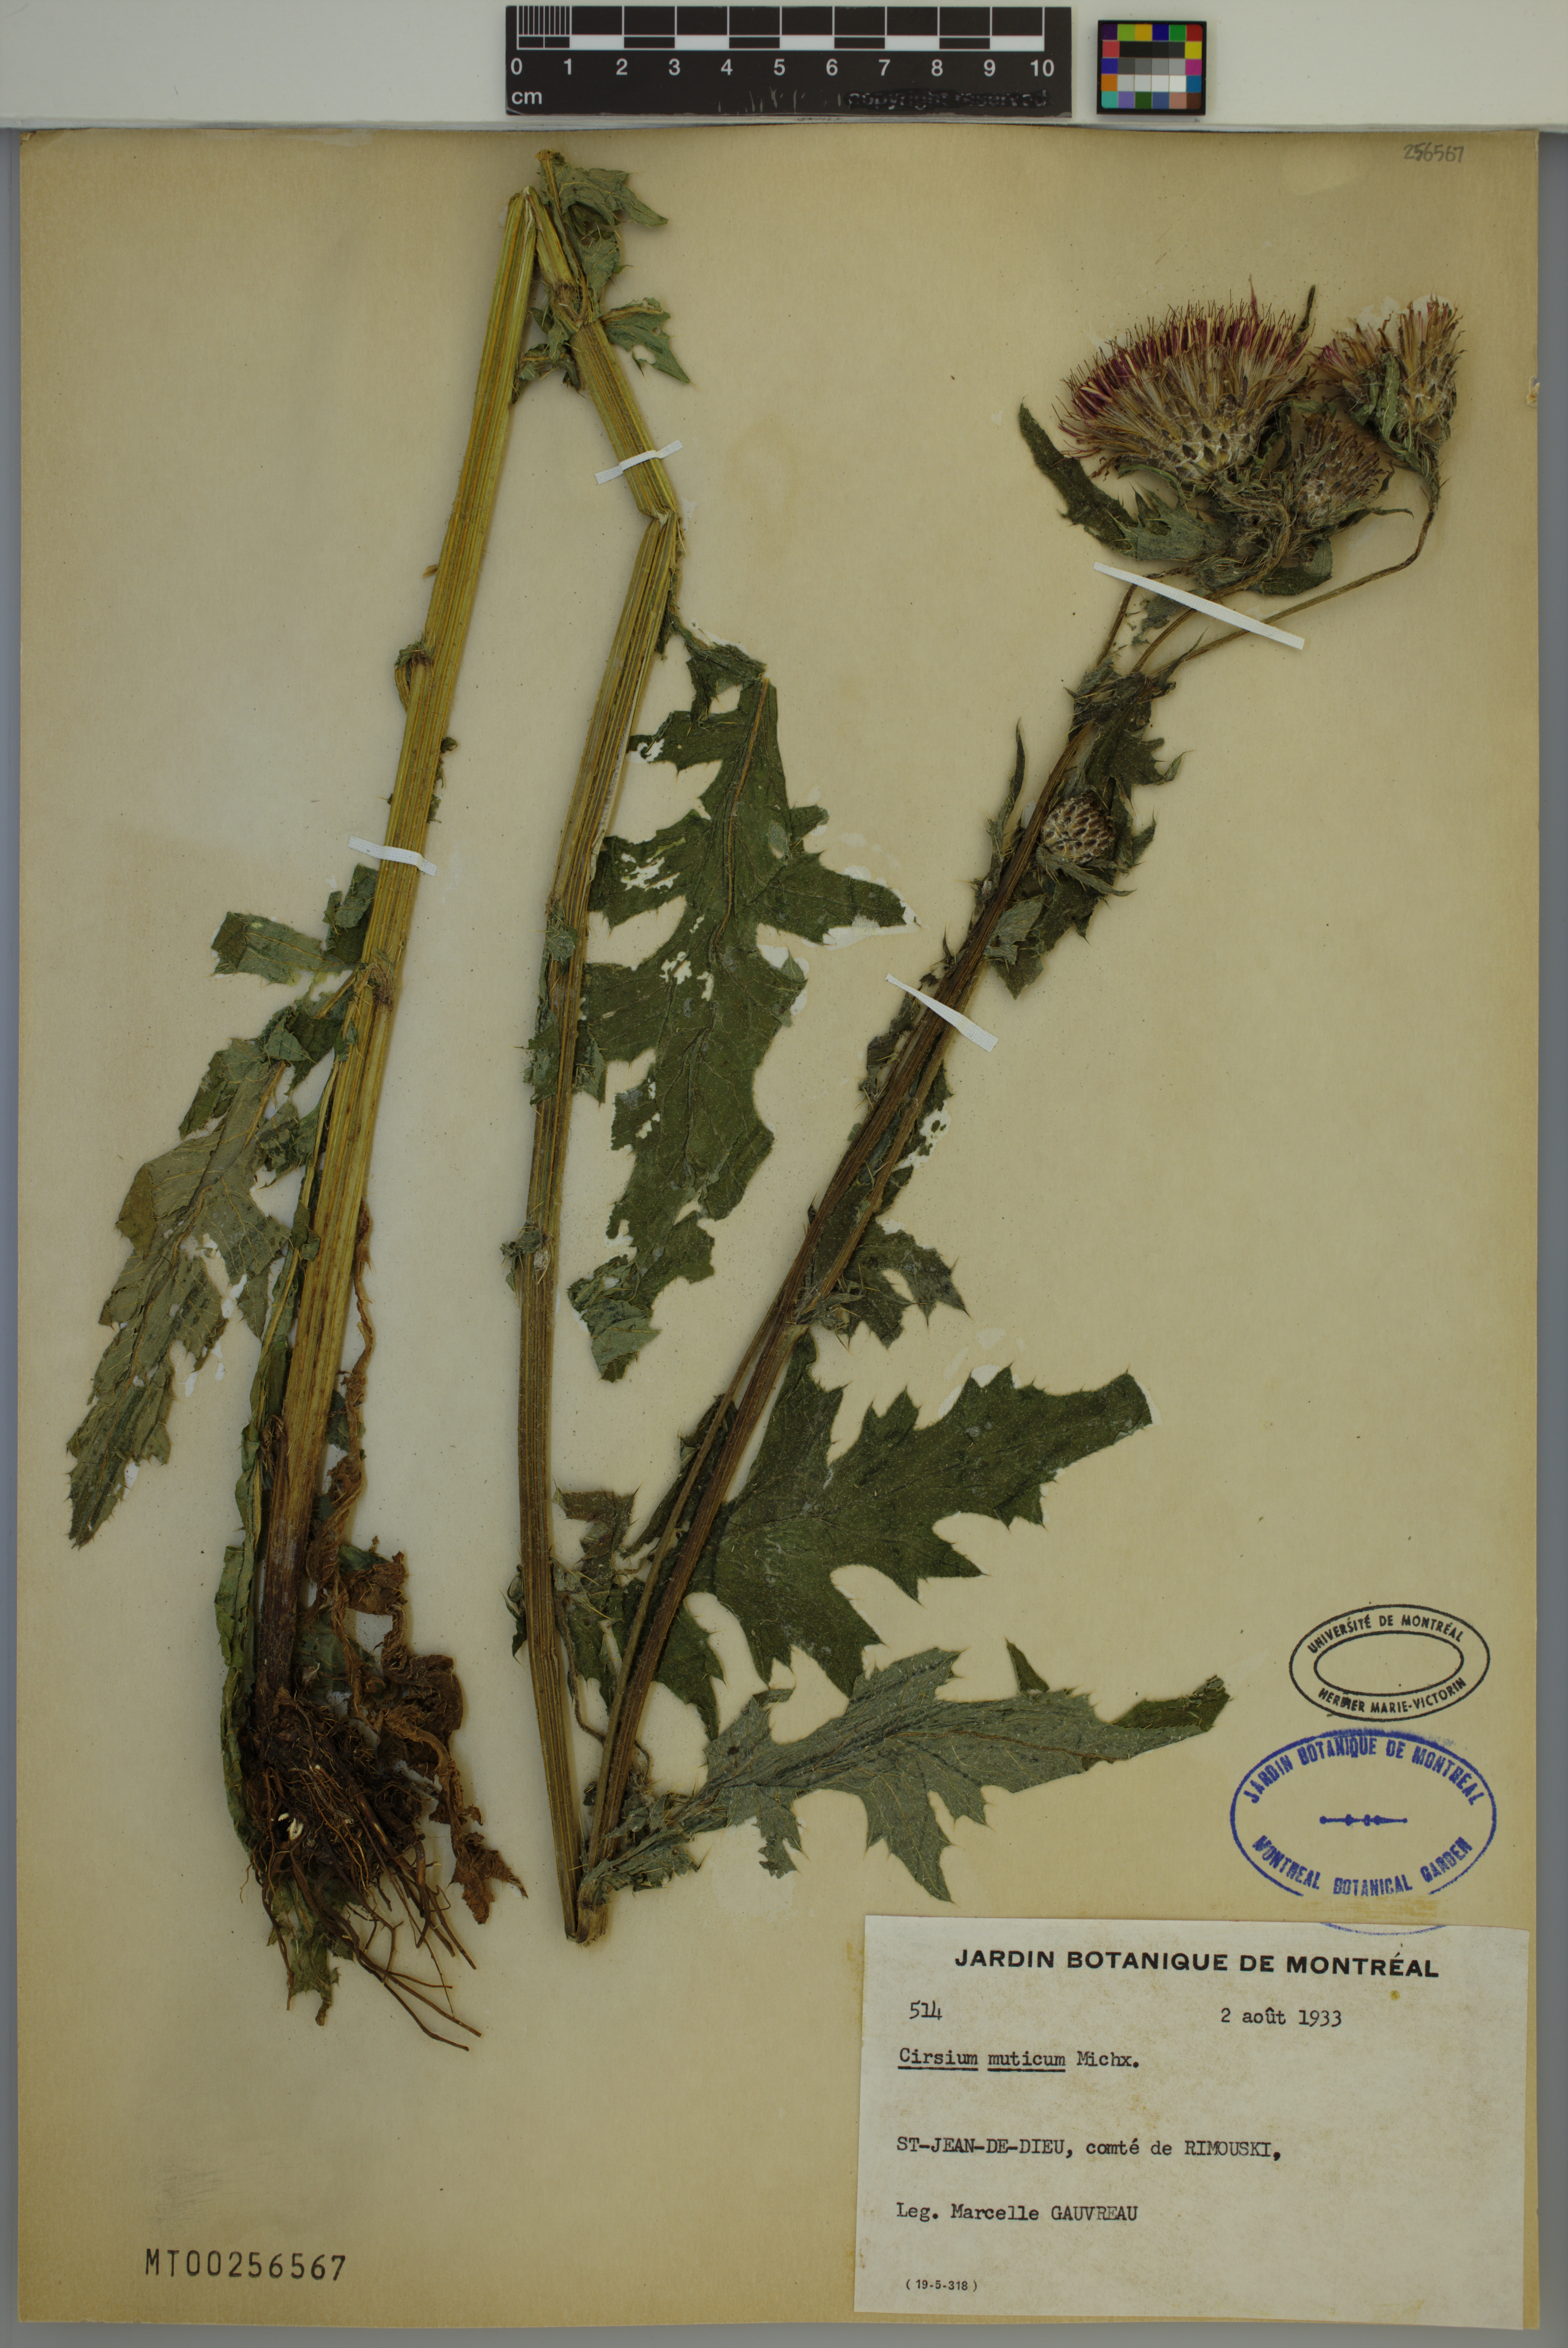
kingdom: Plantae
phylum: Tracheophyta
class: Magnoliopsida
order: Asterales
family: Asteraceae
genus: Cirsium
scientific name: Cirsium muticum
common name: Dunce-nettle
